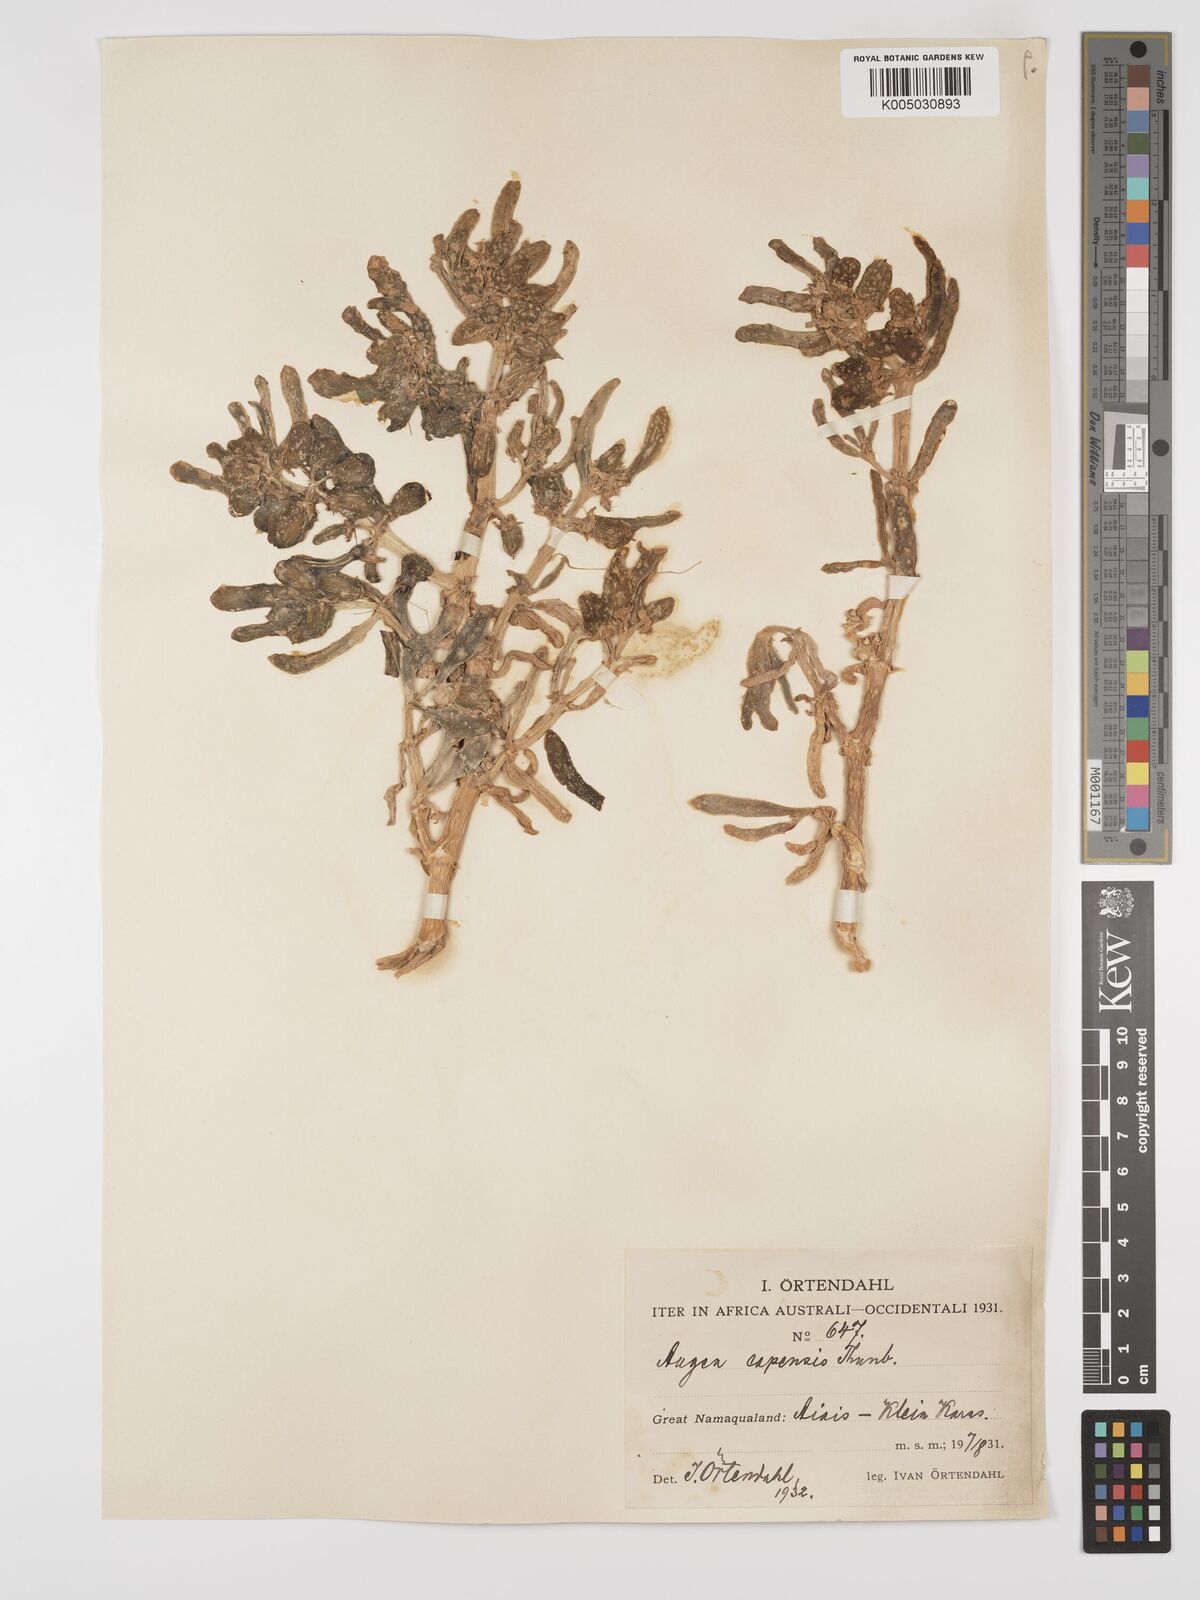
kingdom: Plantae
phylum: Tracheophyta
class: Magnoliopsida
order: Zygophyllales
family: Zygophyllaceae
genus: Augea
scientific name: Augea capensis
